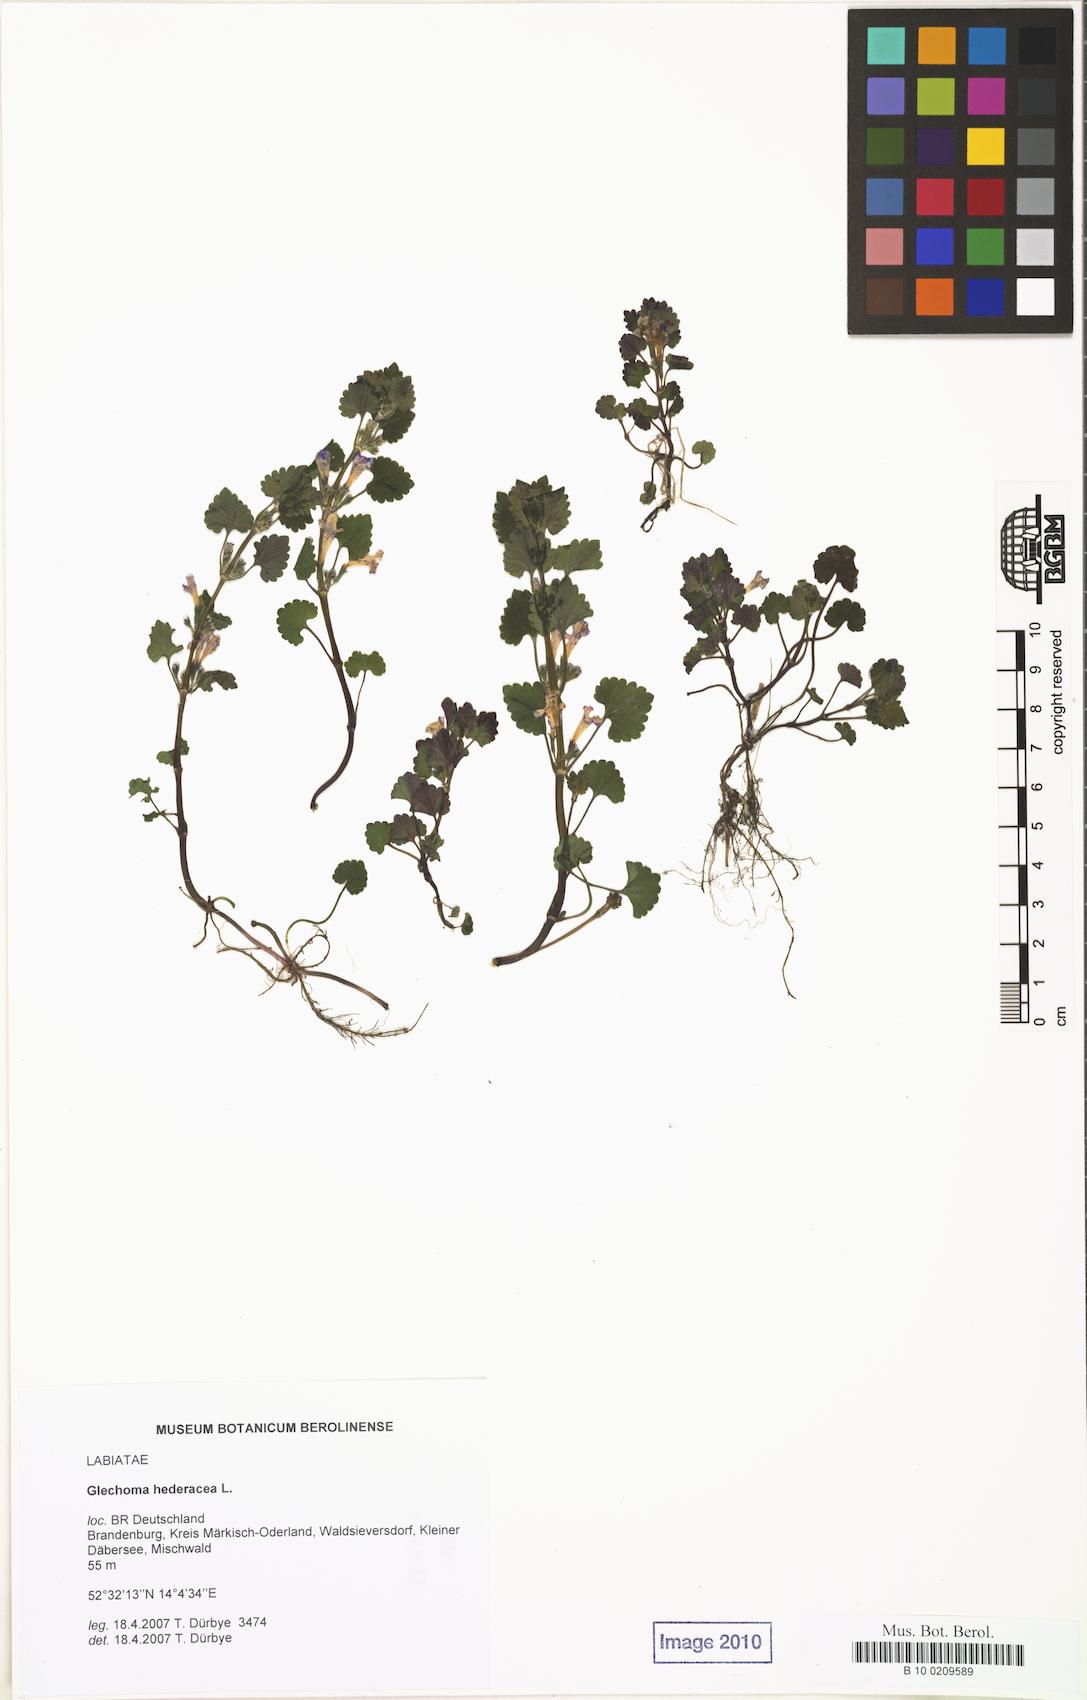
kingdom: Plantae
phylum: Tracheophyta
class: Magnoliopsida
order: Lamiales
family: Lamiaceae
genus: Glechoma
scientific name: Glechoma hederacea
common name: Ground ivy
